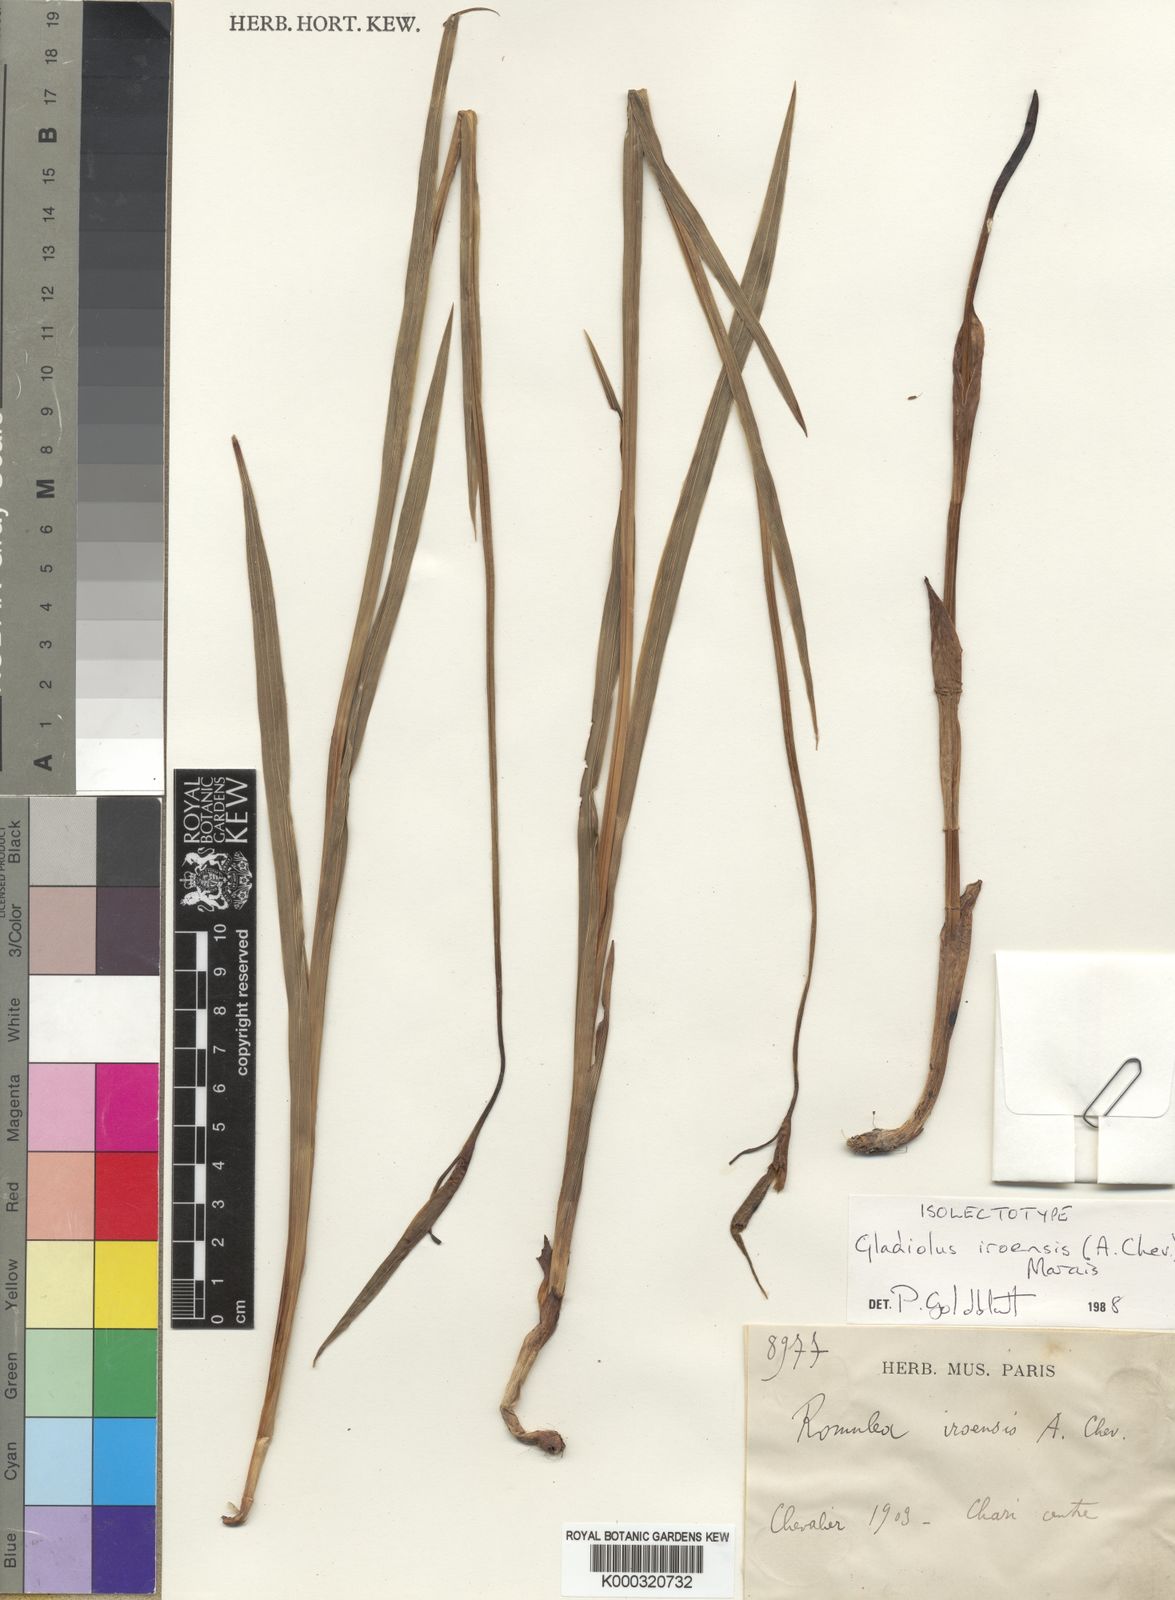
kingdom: Plantae
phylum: Tracheophyta
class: Liliopsida
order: Asparagales
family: Iridaceae
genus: Gladiolus
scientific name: Gladiolus iroensis
